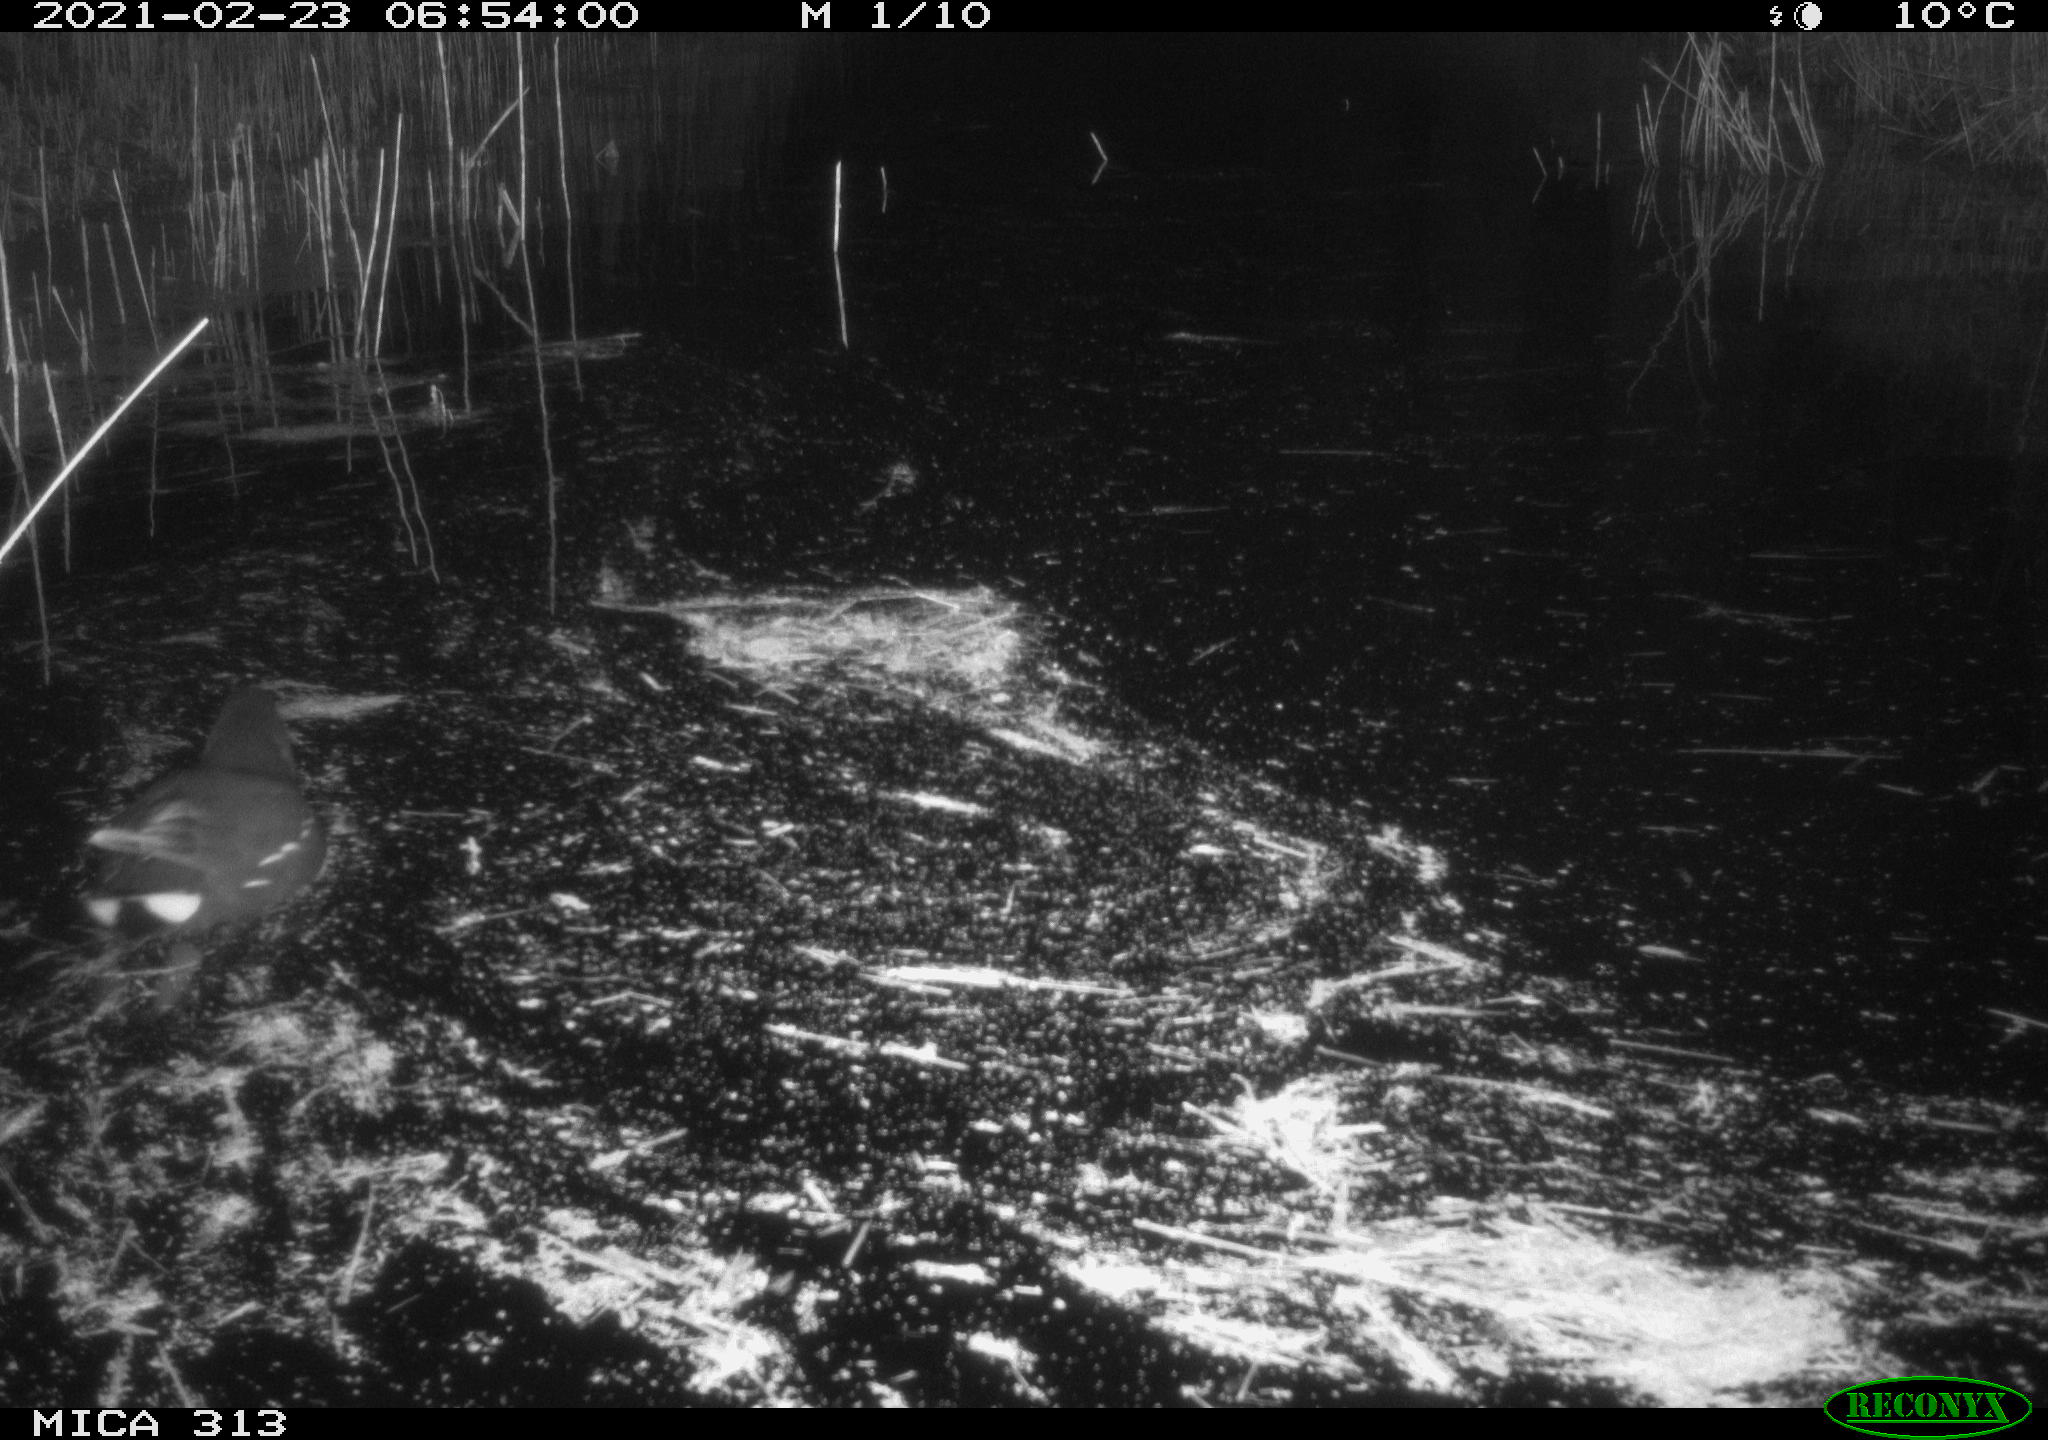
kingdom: Animalia
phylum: Chordata
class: Aves
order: Gruiformes
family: Rallidae
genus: Gallinula
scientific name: Gallinula chloropus
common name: Common moorhen
